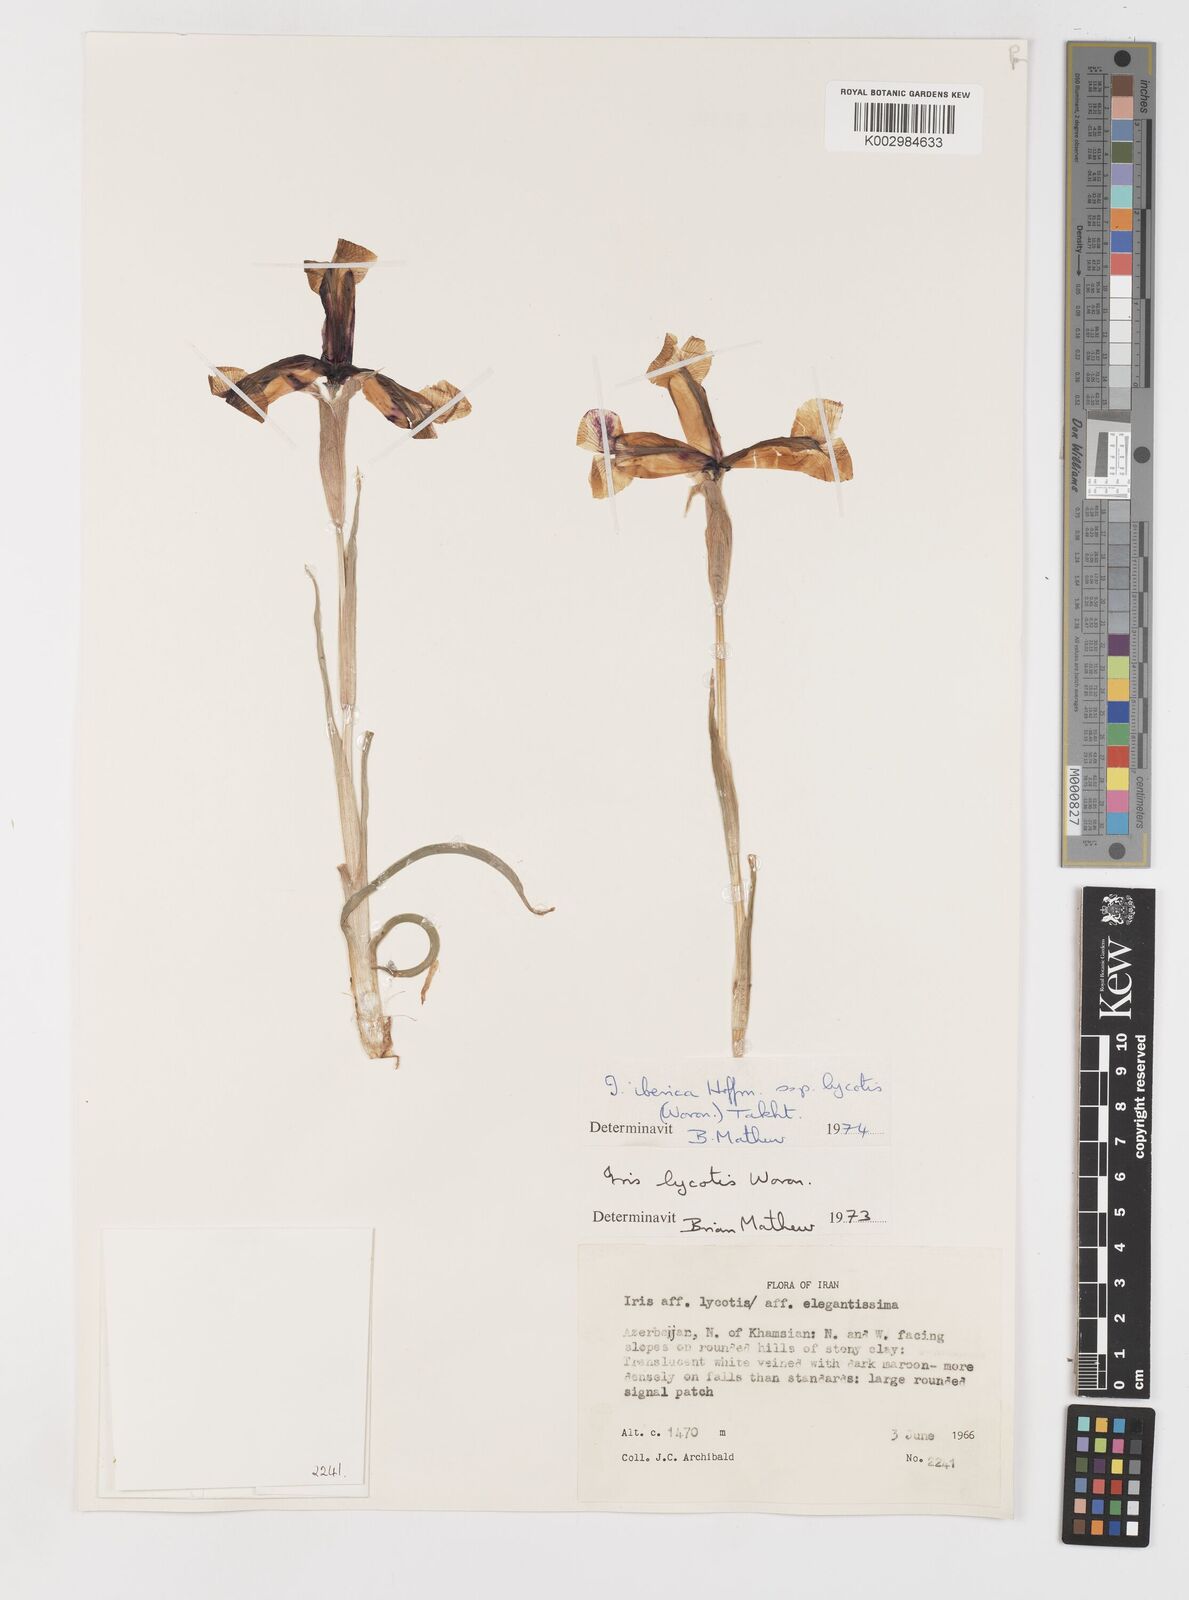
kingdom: Plantae
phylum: Tracheophyta
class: Liliopsida
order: Asparagales
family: Iridaceae
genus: Iris
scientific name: Iris lycotis
